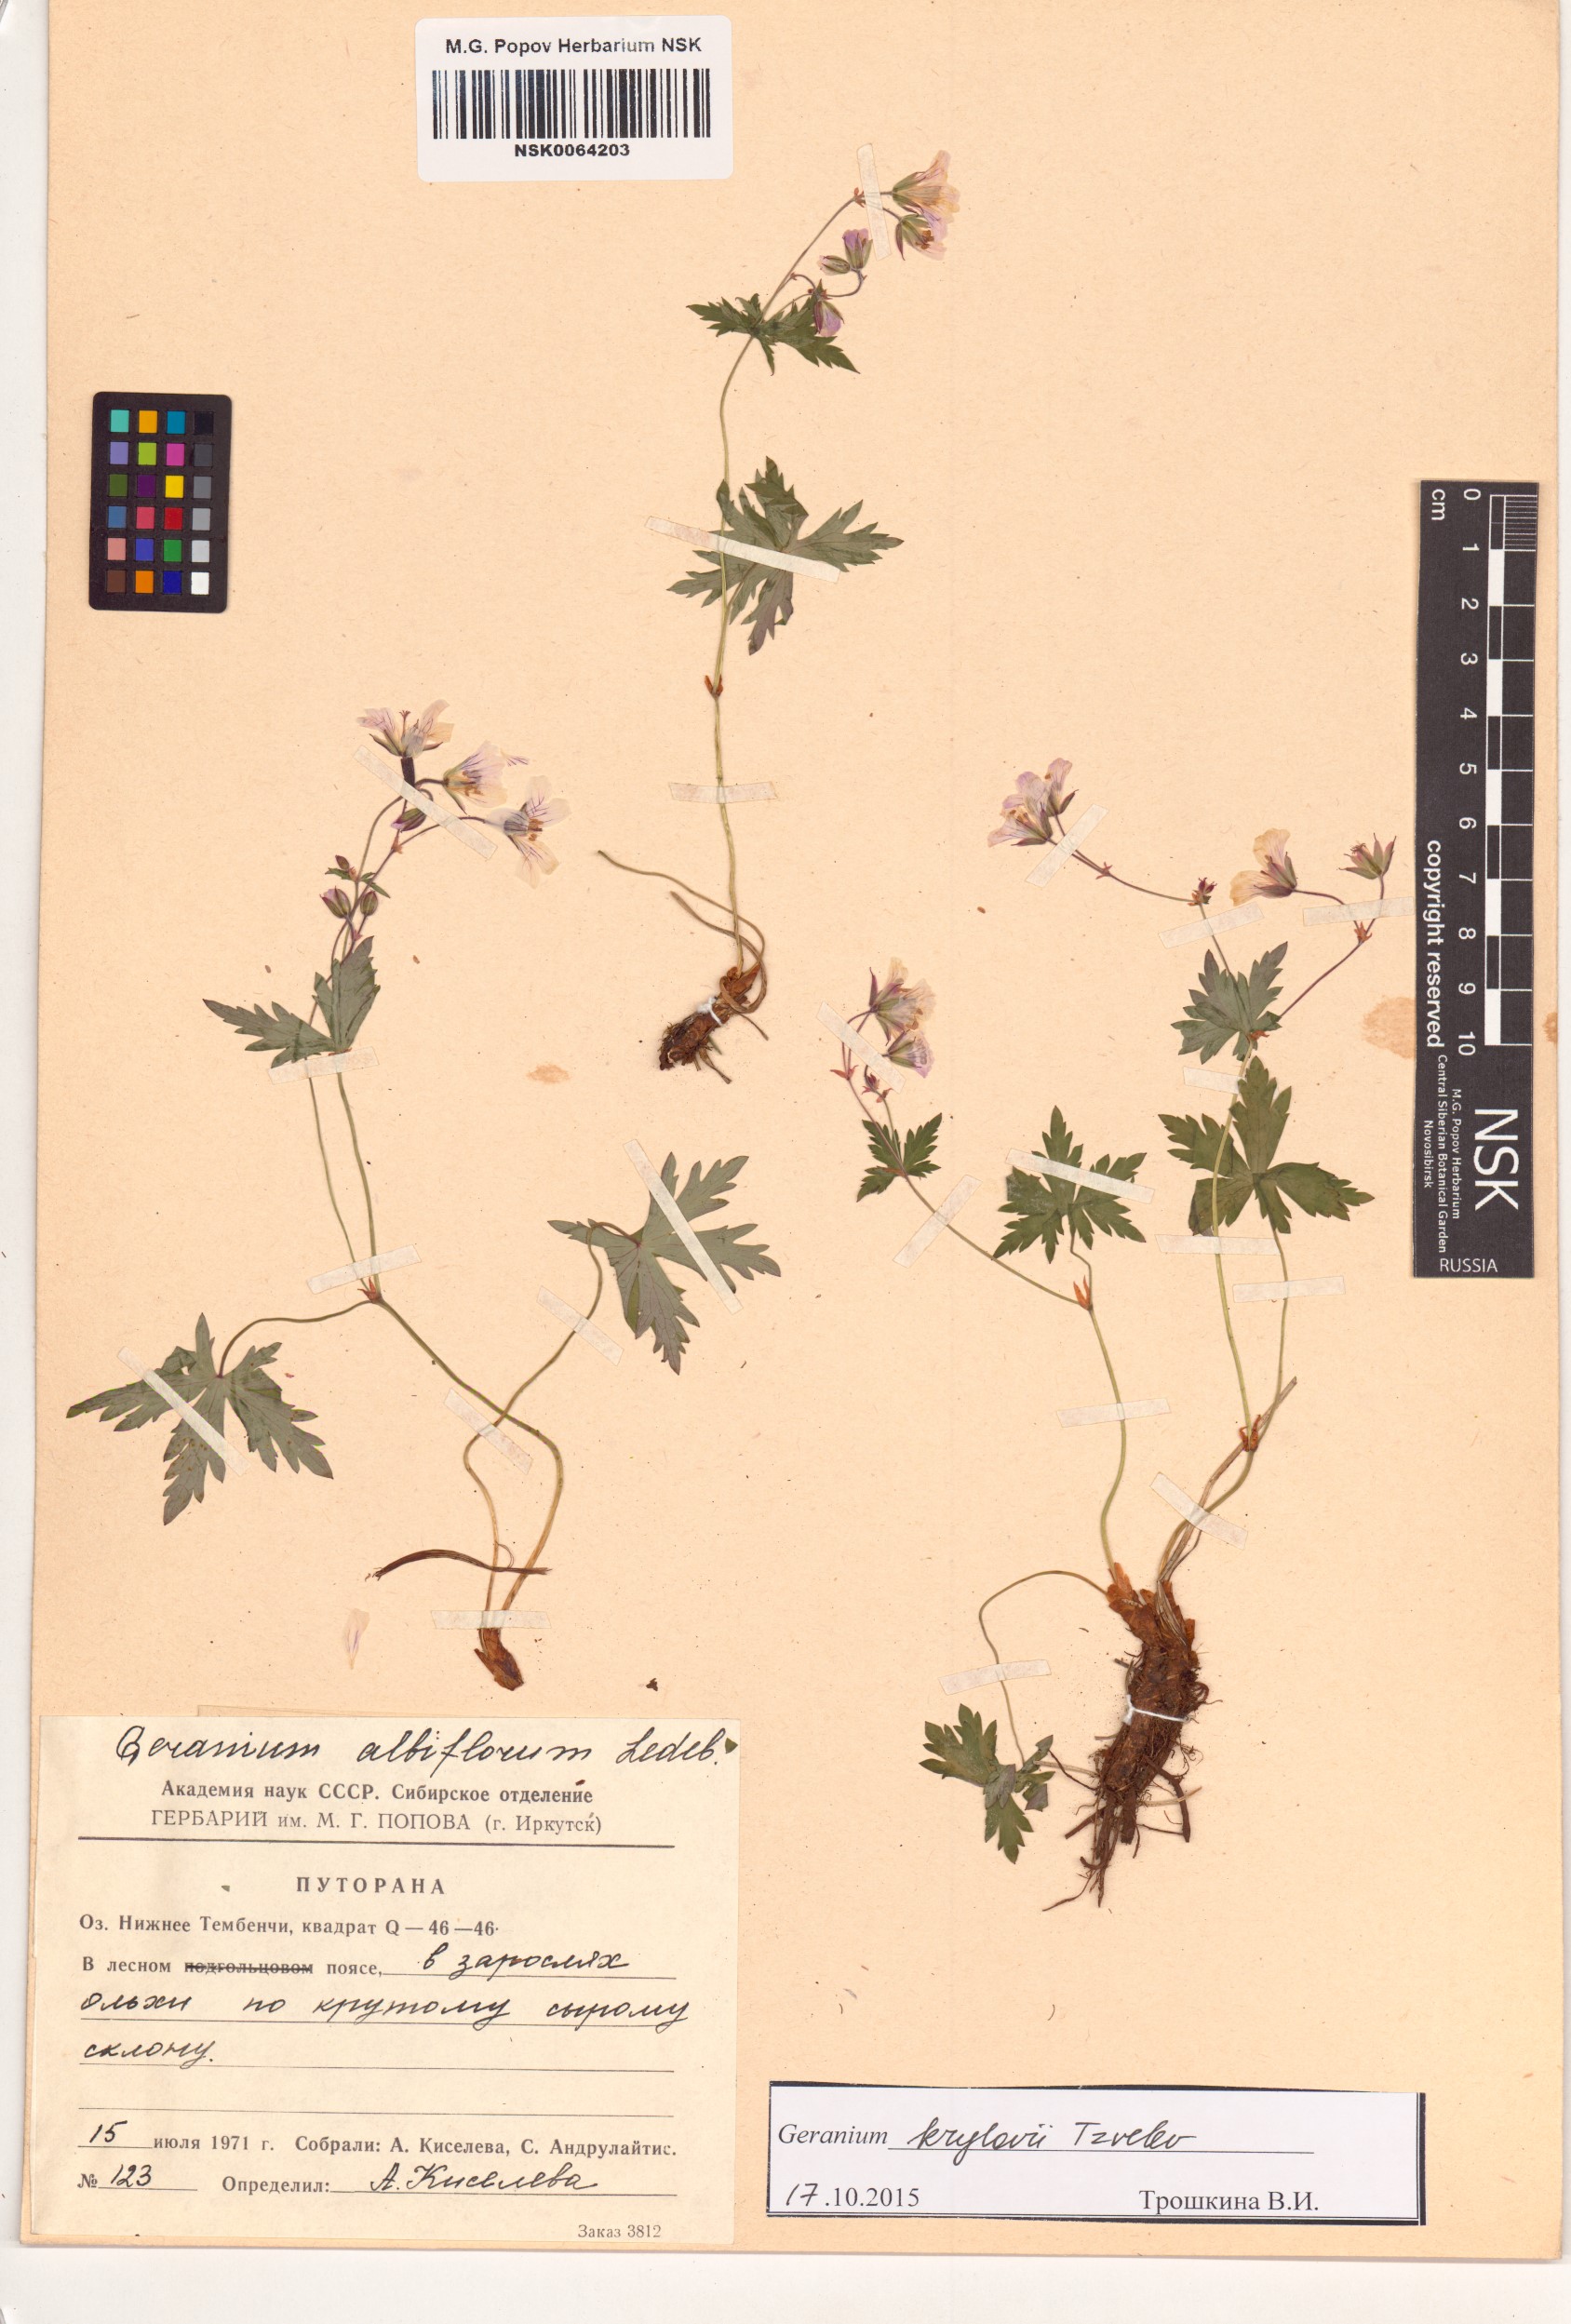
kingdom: Plantae
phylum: Tracheophyta
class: Magnoliopsida
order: Geraniales
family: Geraniaceae
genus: Geranium
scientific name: Geranium sylvaticum
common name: Wood crane's-bill
